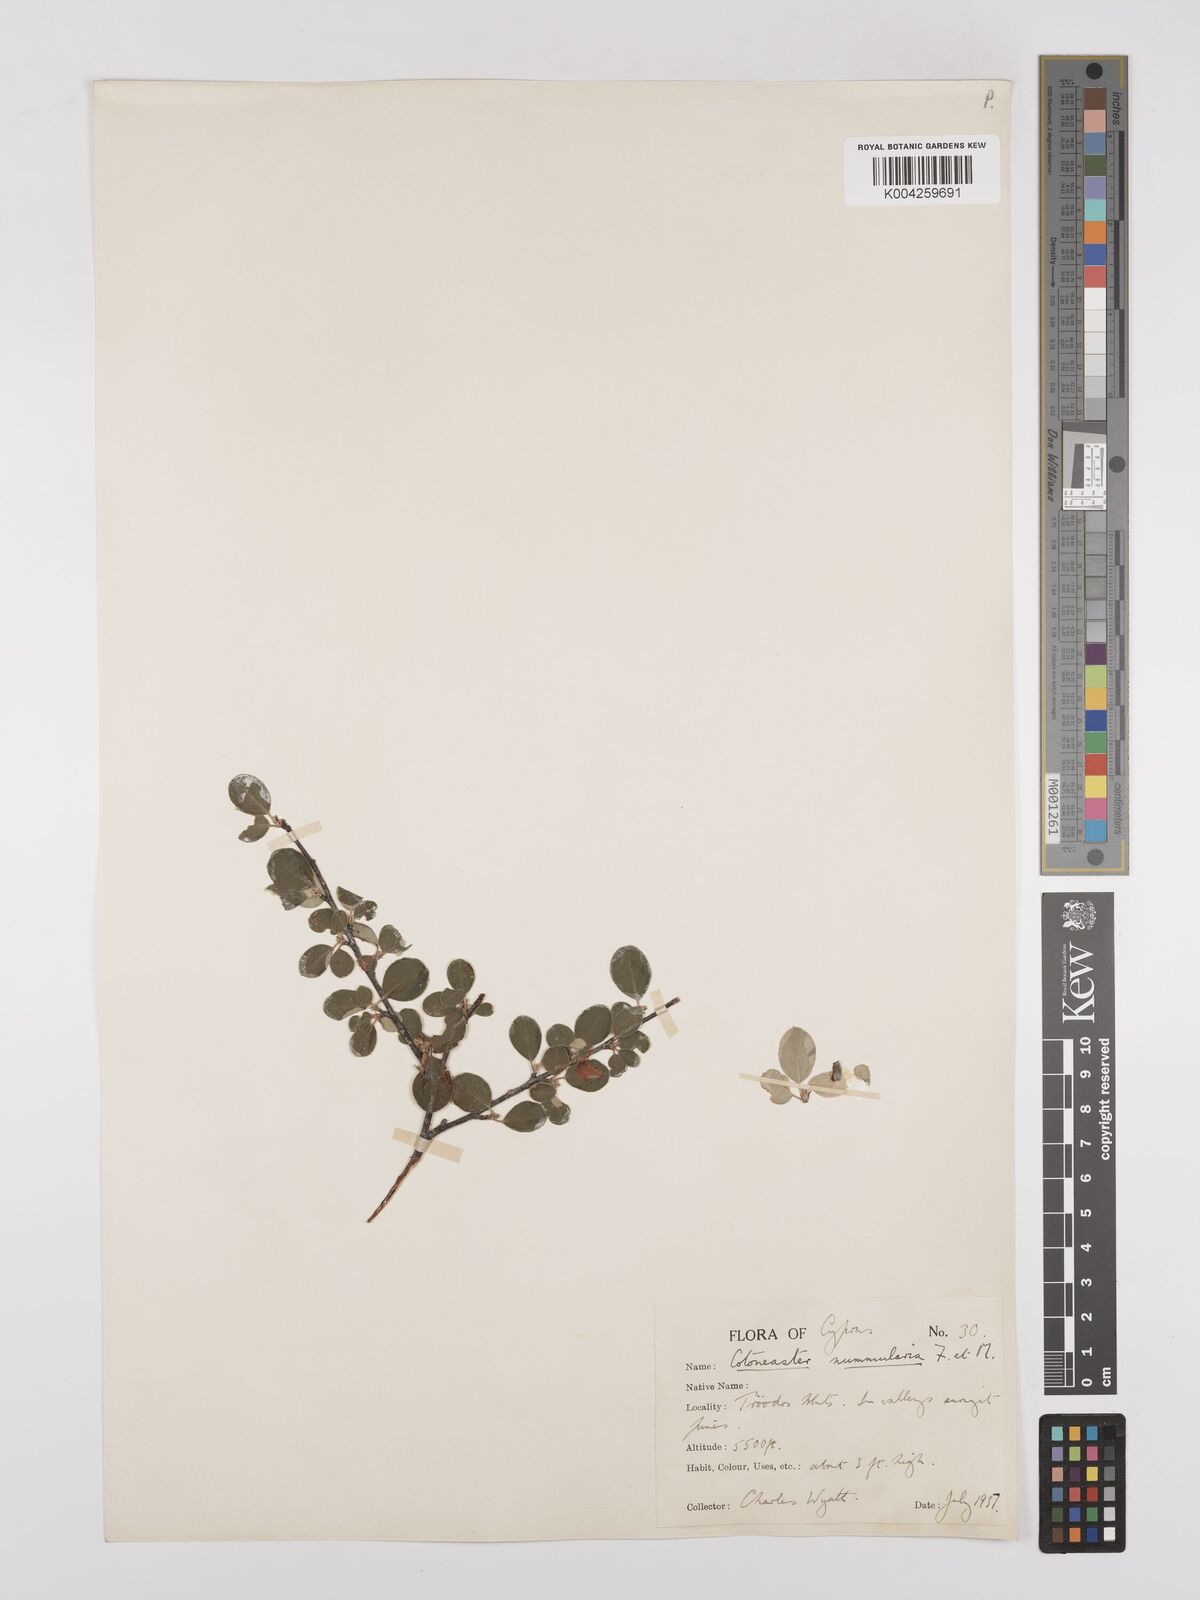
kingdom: Plantae
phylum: Tracheophyta
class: Magnoliopsida
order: Rosales
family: Rosaceae
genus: Cotoneaster
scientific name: Cotoneaster racemiflorus
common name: Cluster-flower cotoneaster
